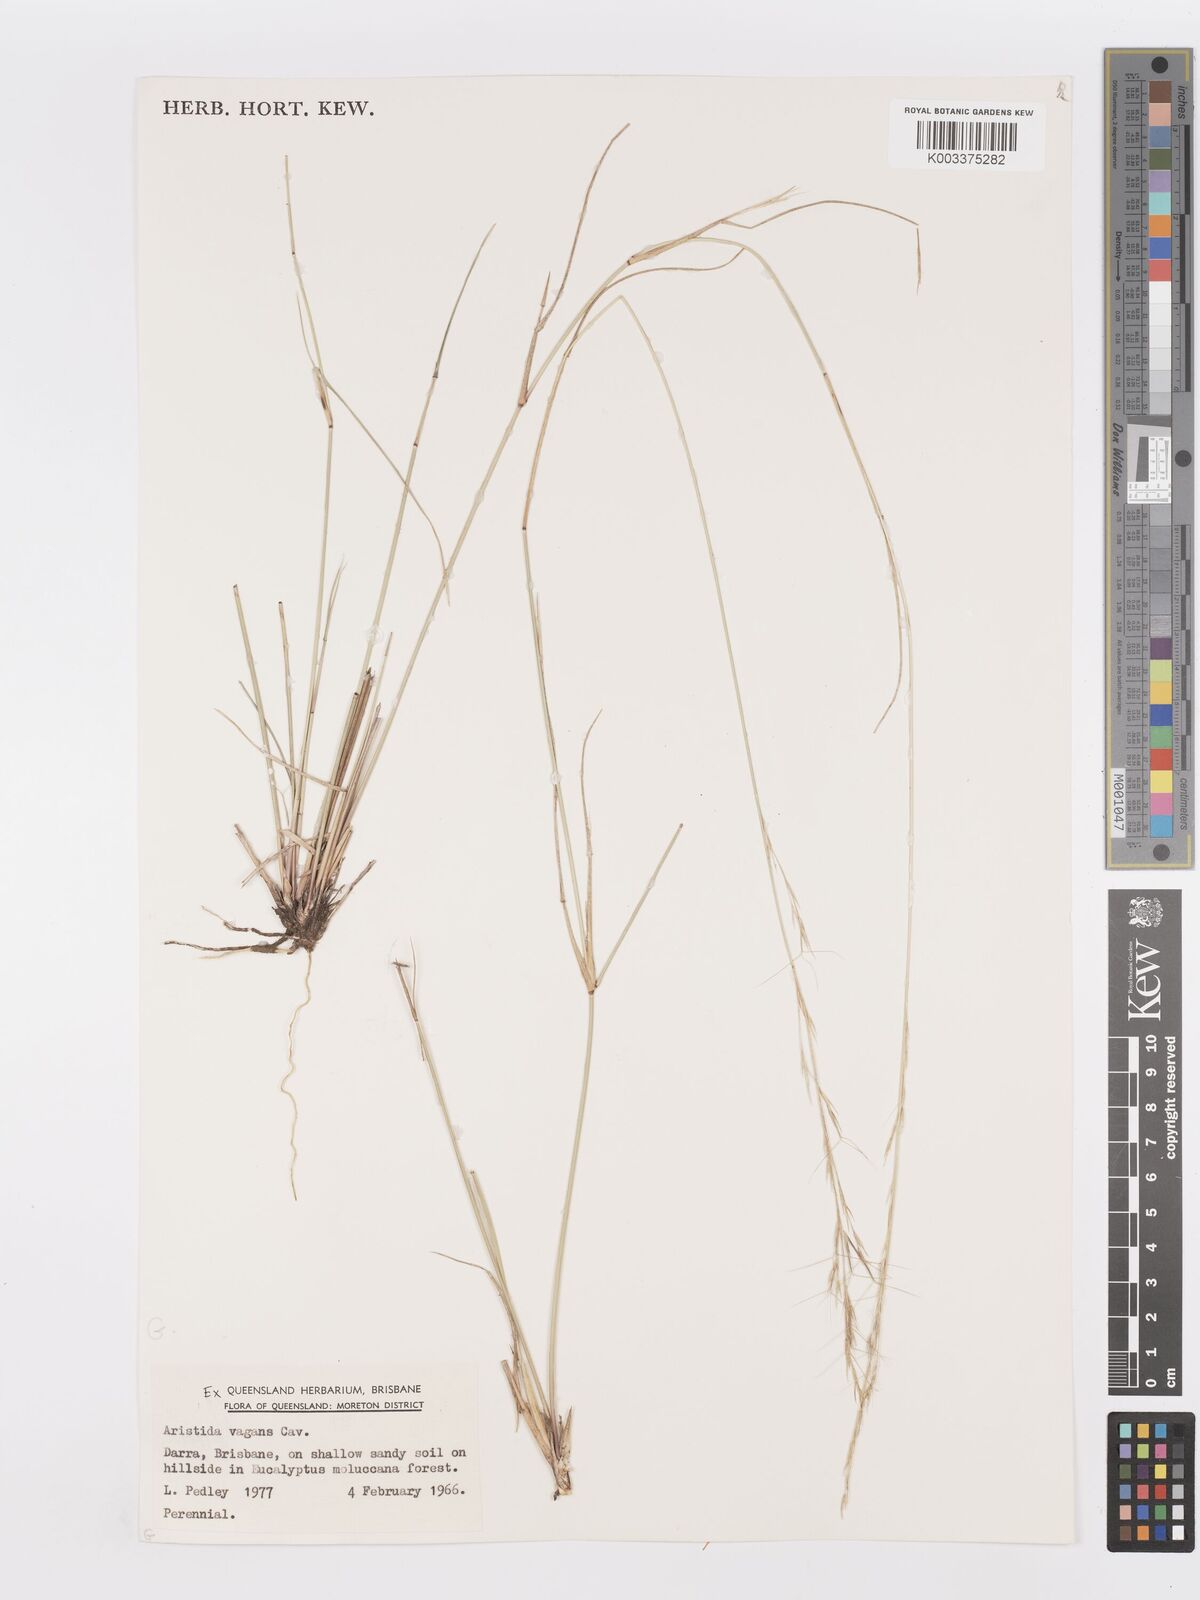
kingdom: Plantae
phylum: Tracheophyta
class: Liliopsida
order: Poales
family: Poaceae
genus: Aristida
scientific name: Aristida vagans
